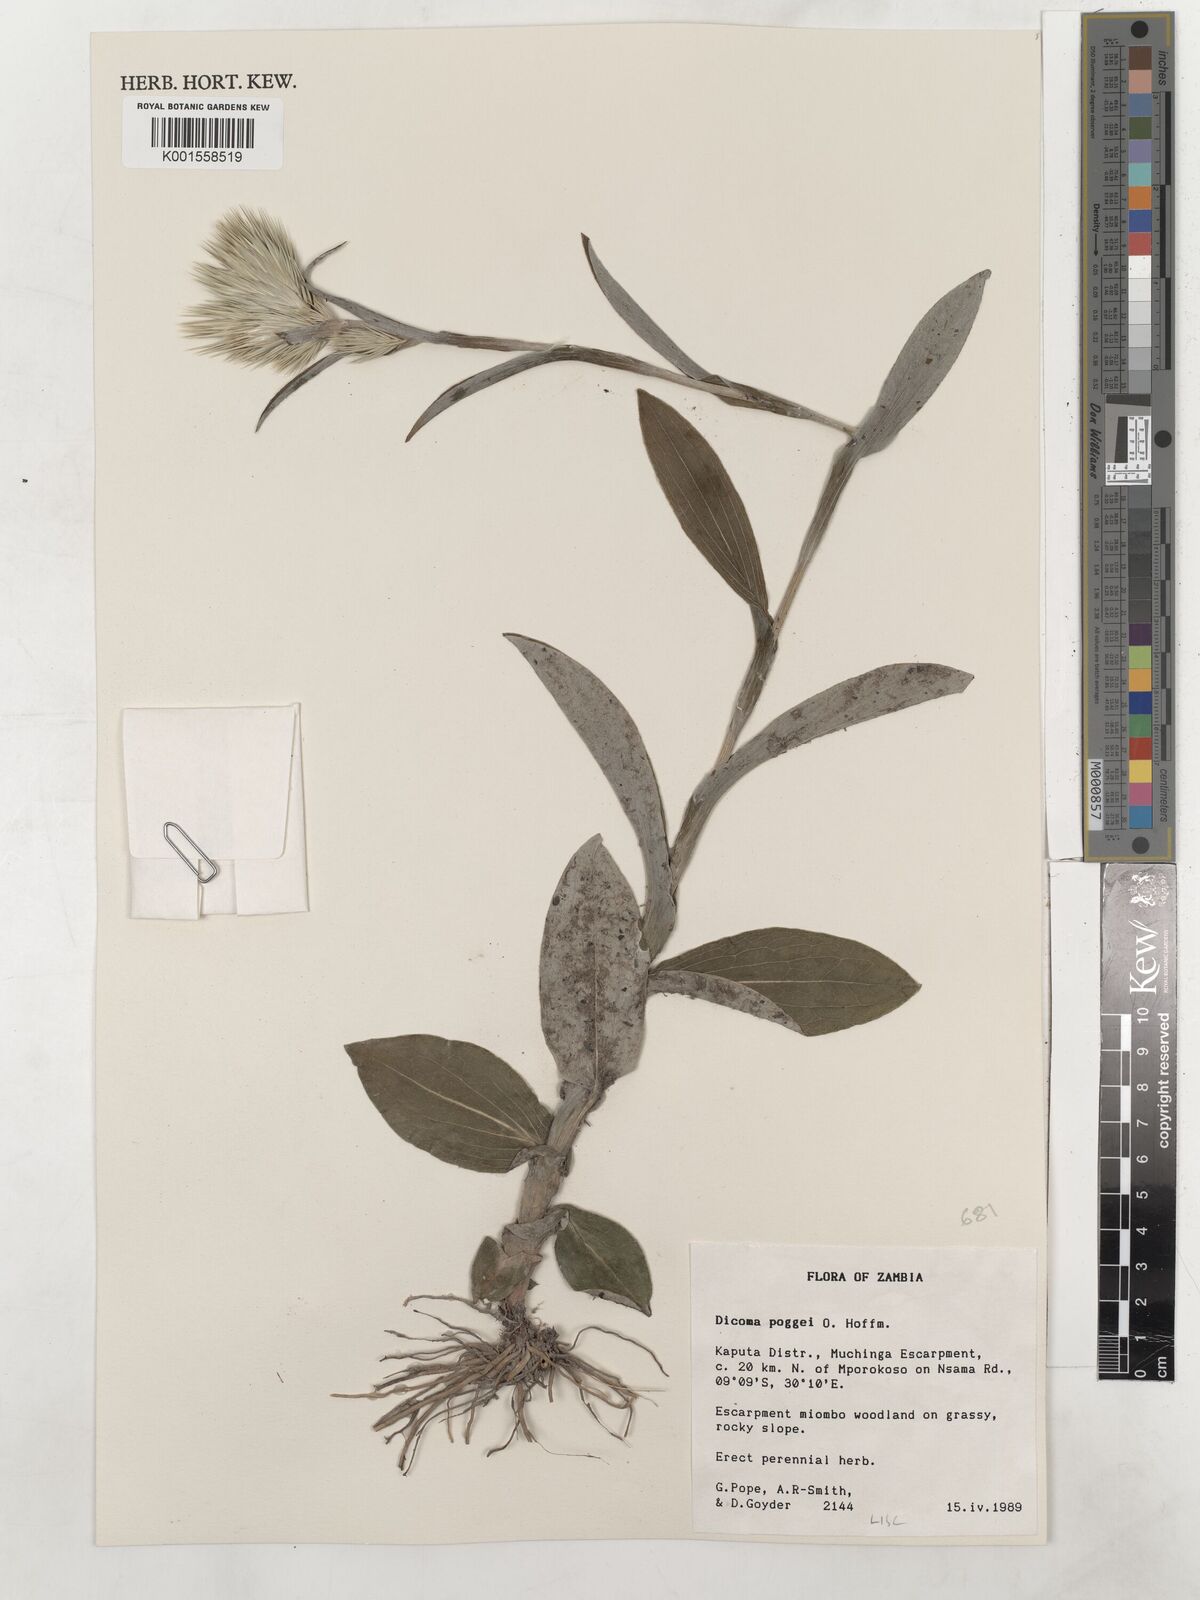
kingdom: Plantae
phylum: Tracheophyta
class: Magnoliopsida
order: Asterales
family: Asteraceae
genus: Macledium
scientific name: Macledium poggei
